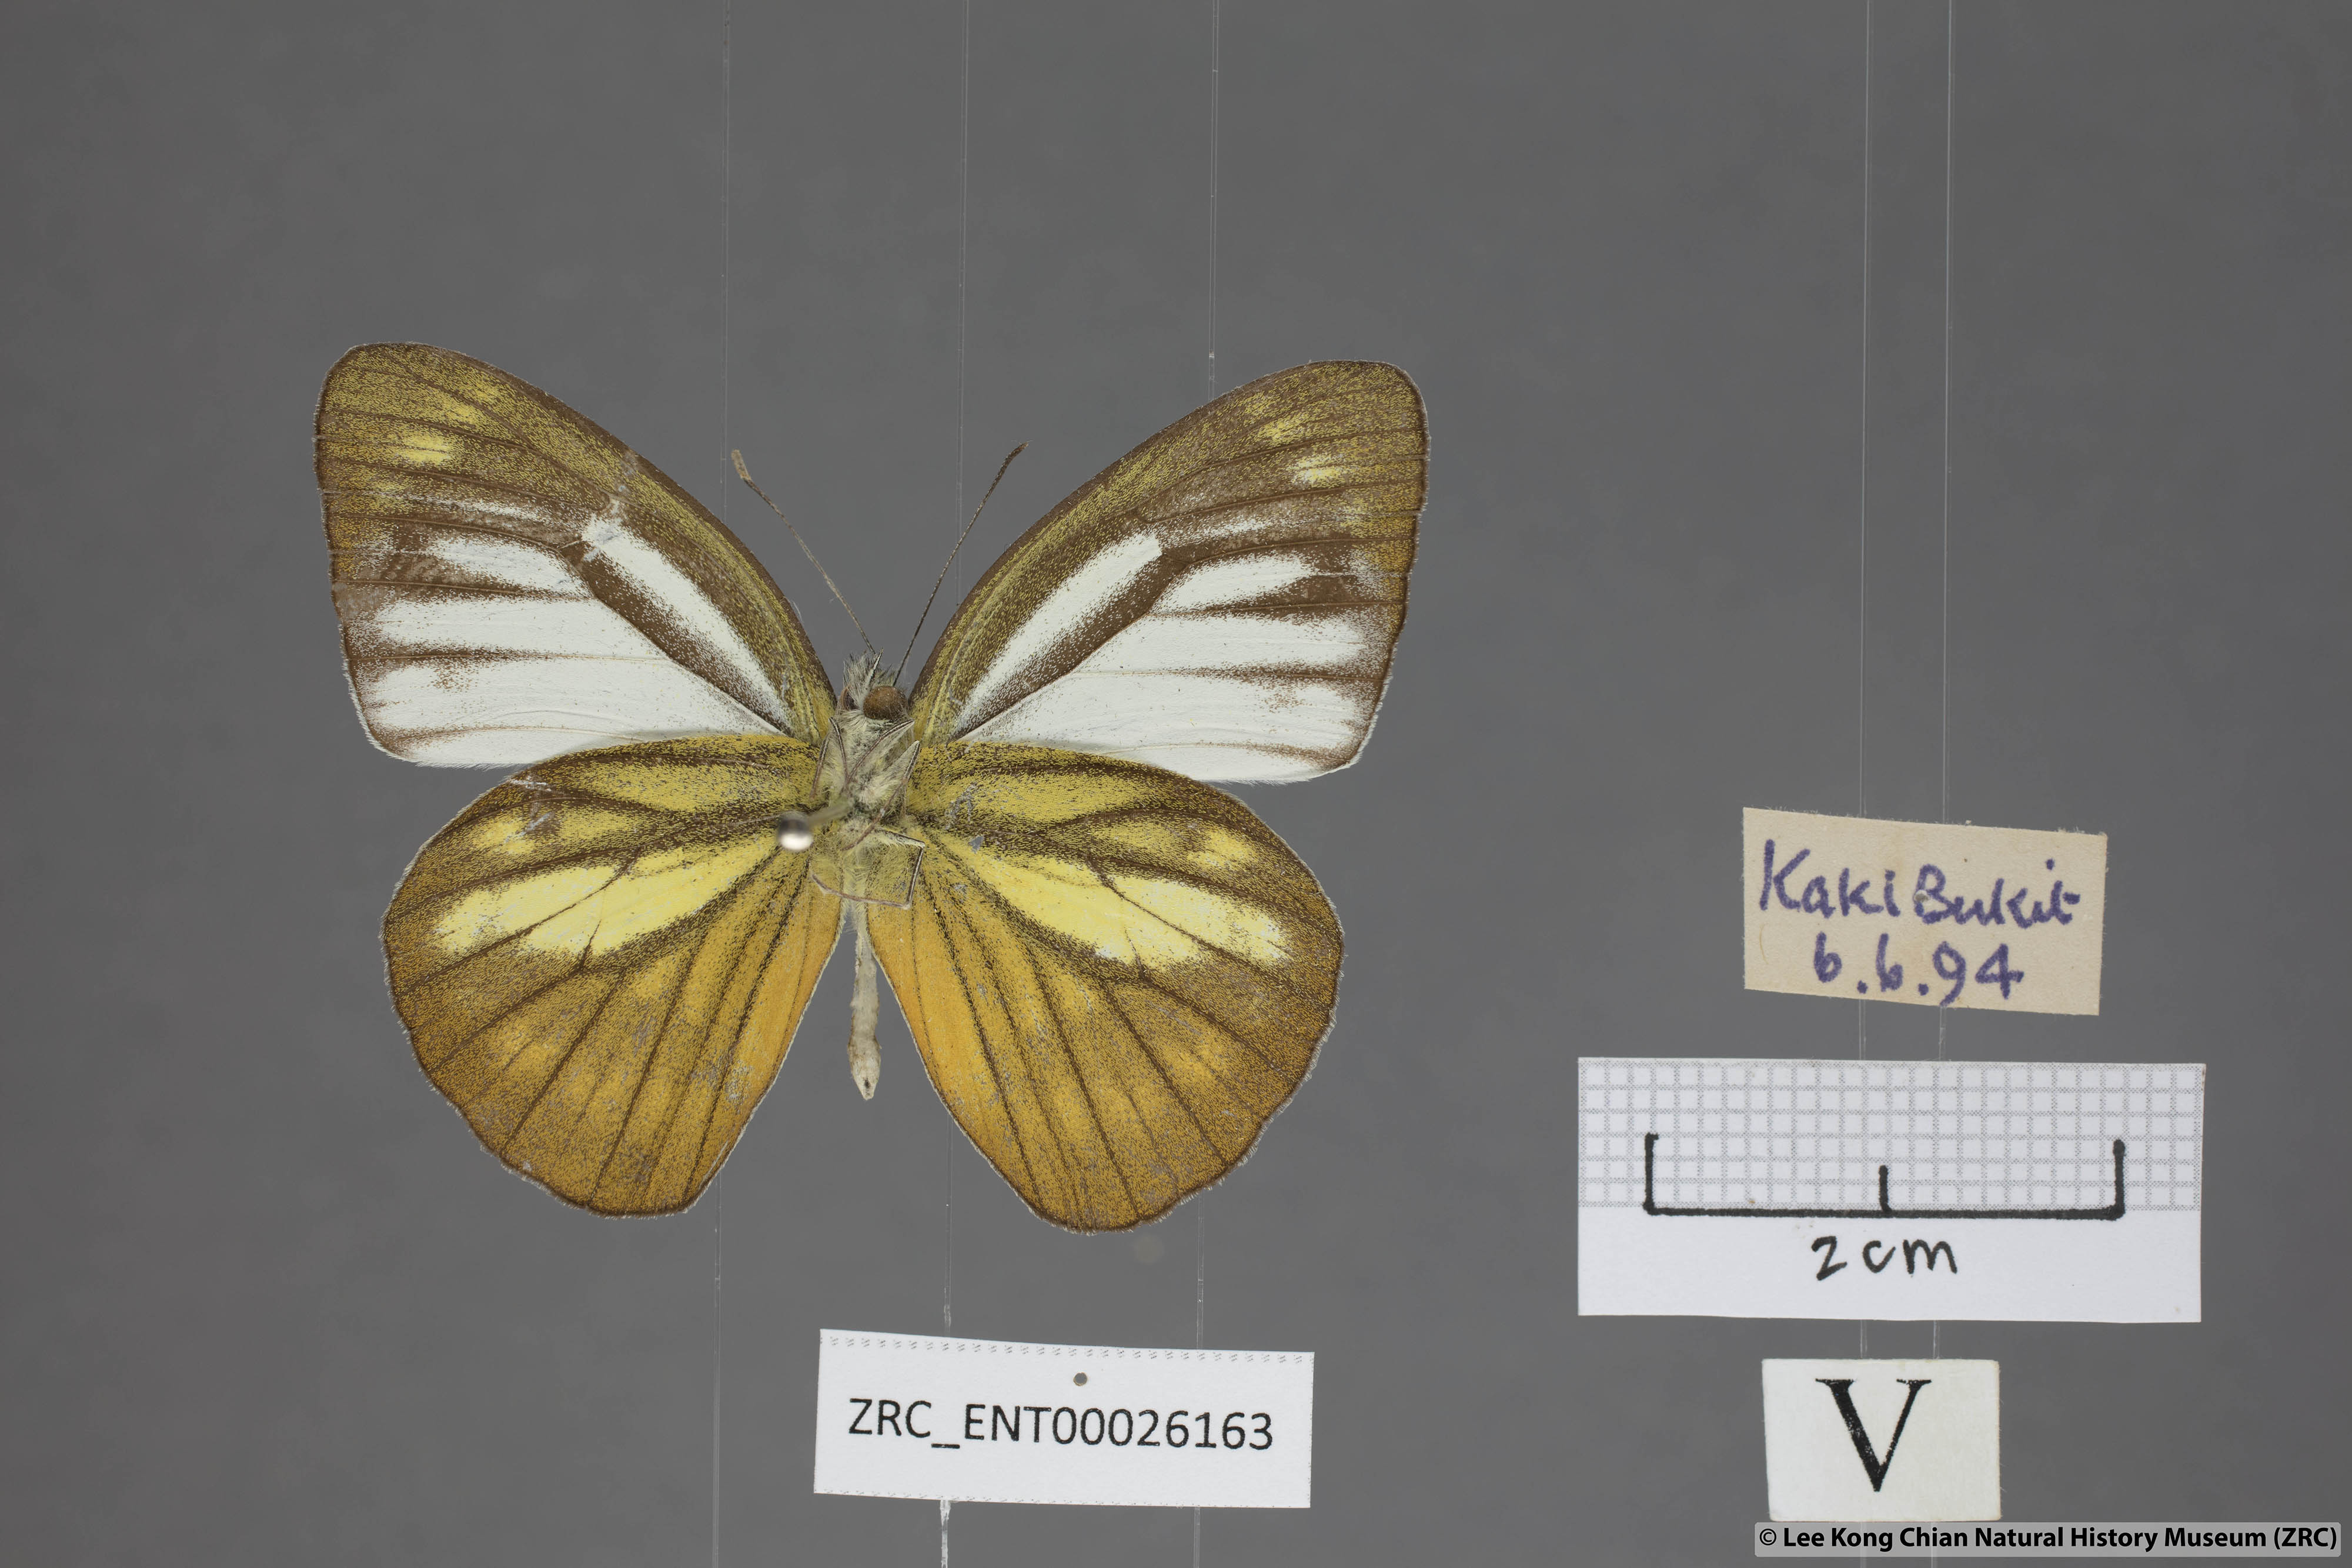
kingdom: Animalia
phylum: Arthropoda
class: Insecta
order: Lepidoptera
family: Pieridae
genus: Cepora
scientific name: Cepora nerissa
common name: Common gull
